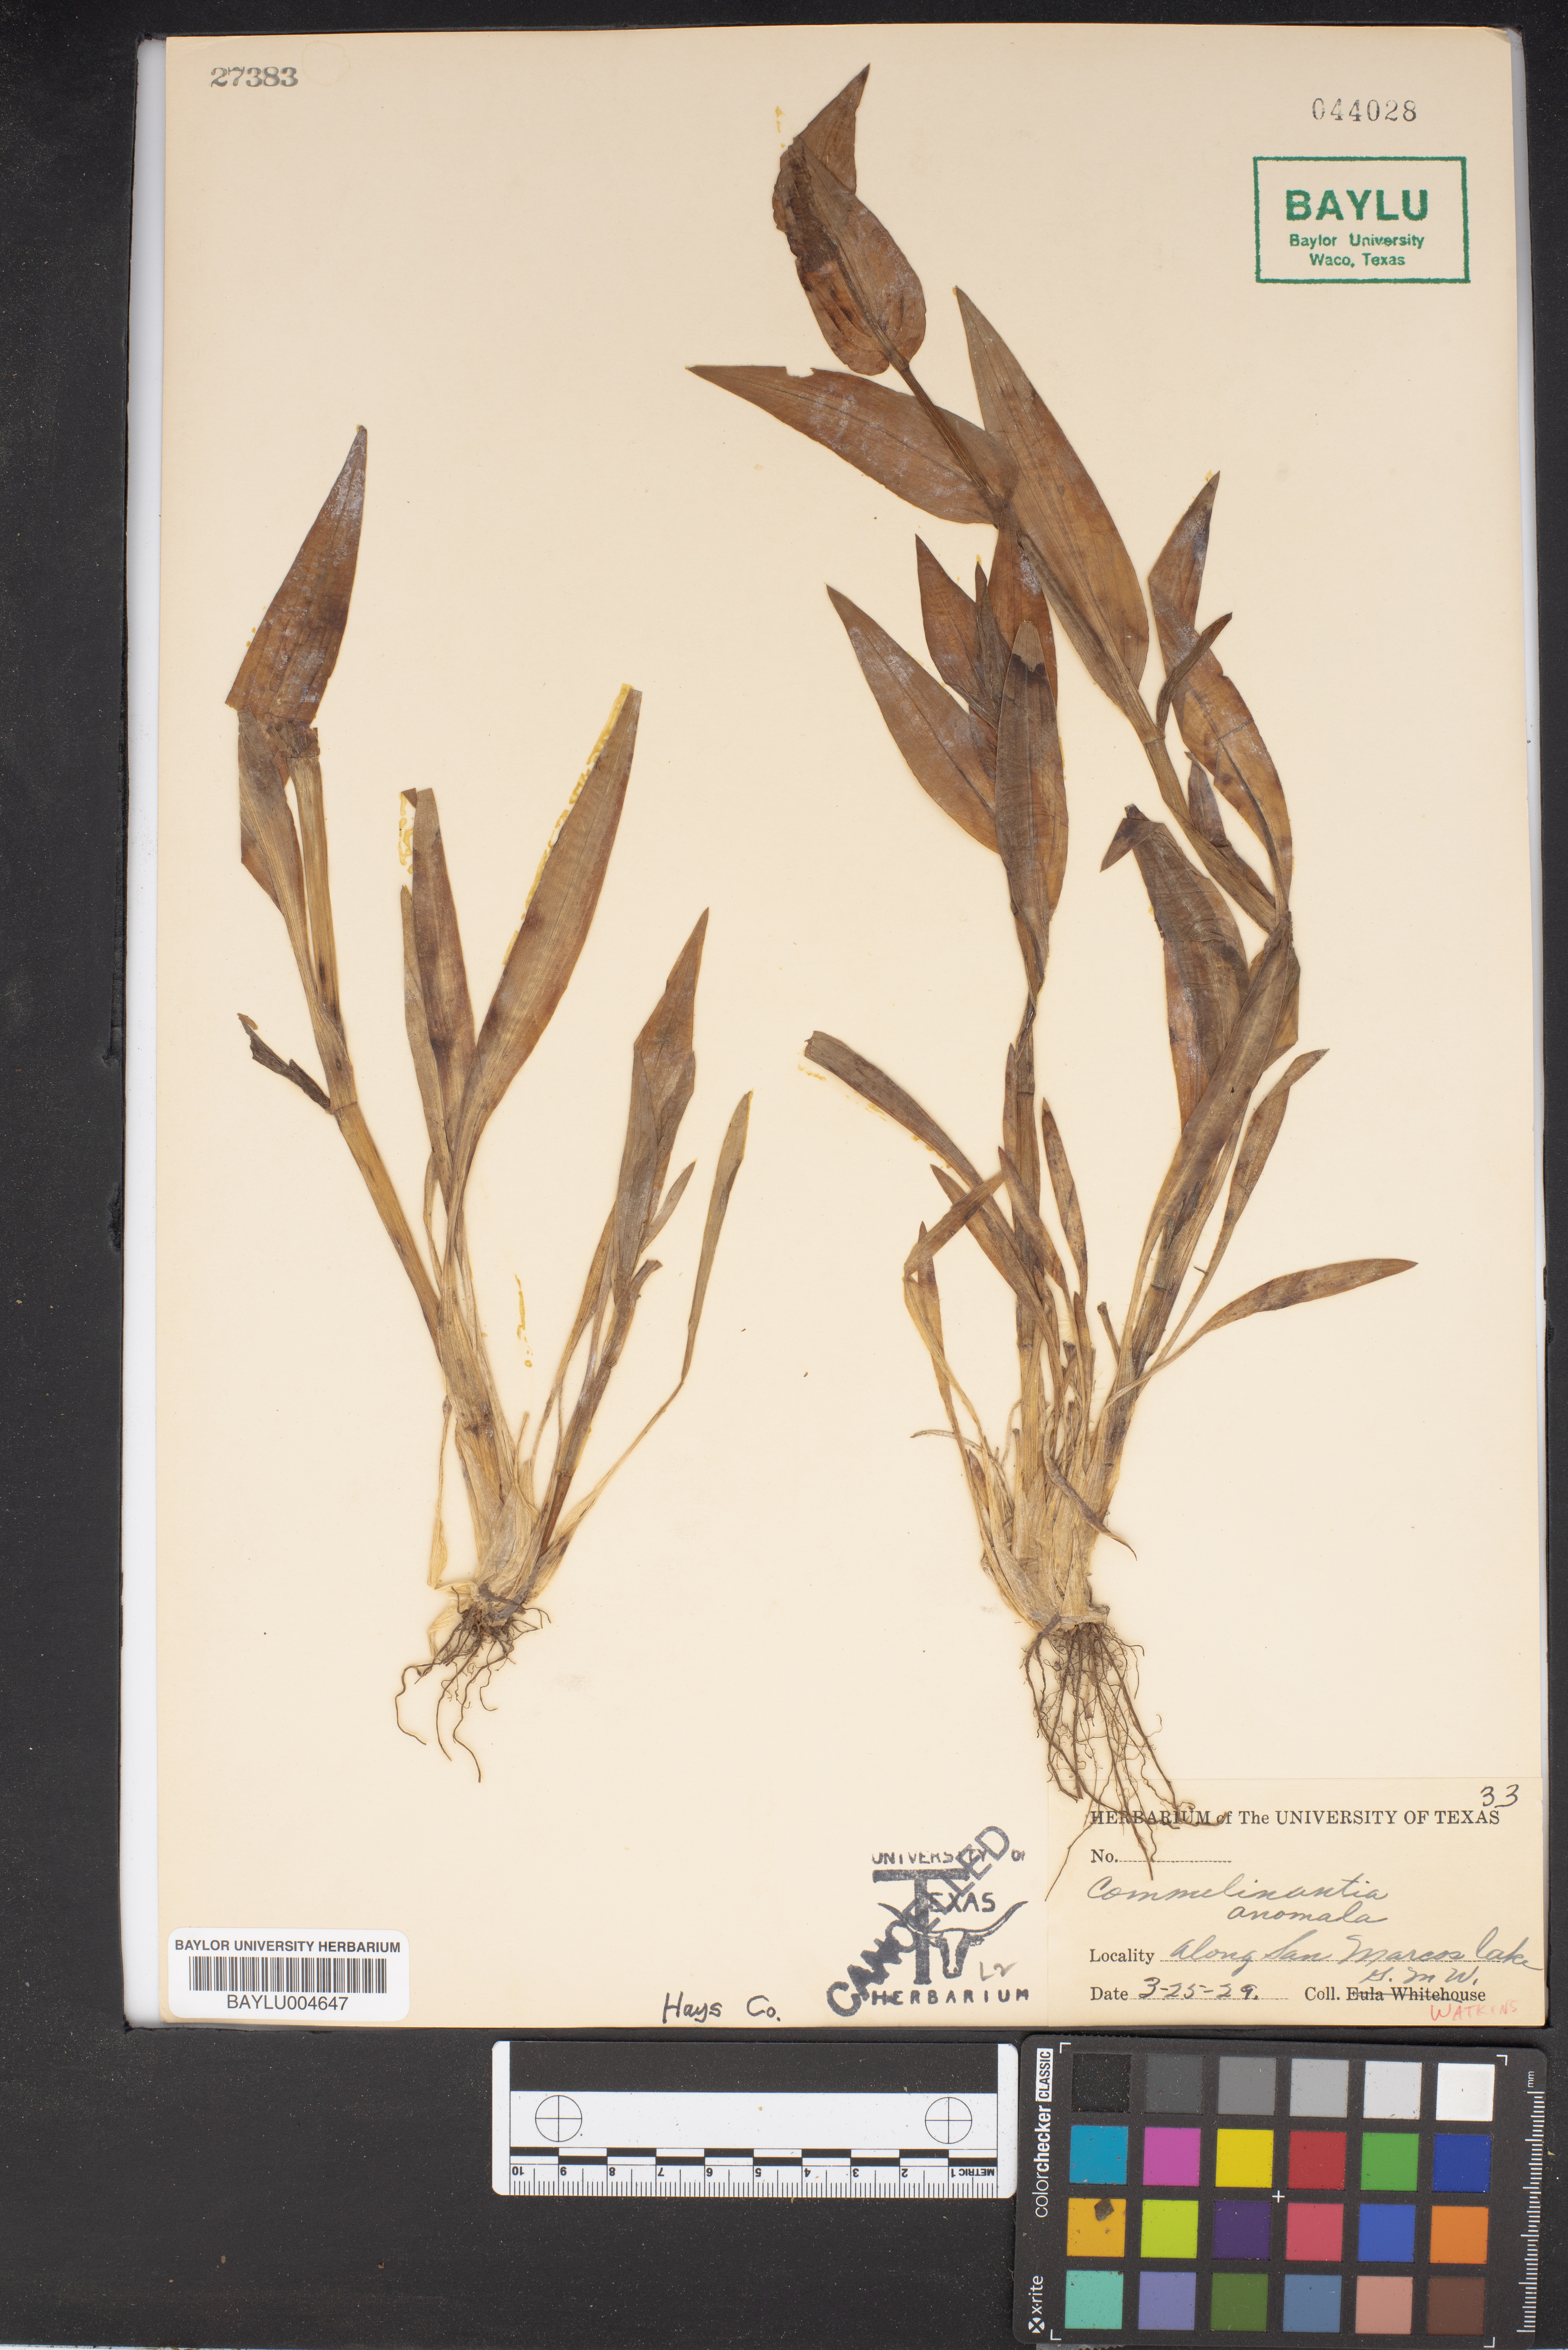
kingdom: Plantae
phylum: Tracheophyta
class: Liliopsida
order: Commelinales
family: Commelinaceae
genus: Tinantia
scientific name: Tinantia anomala
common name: False dayflower
